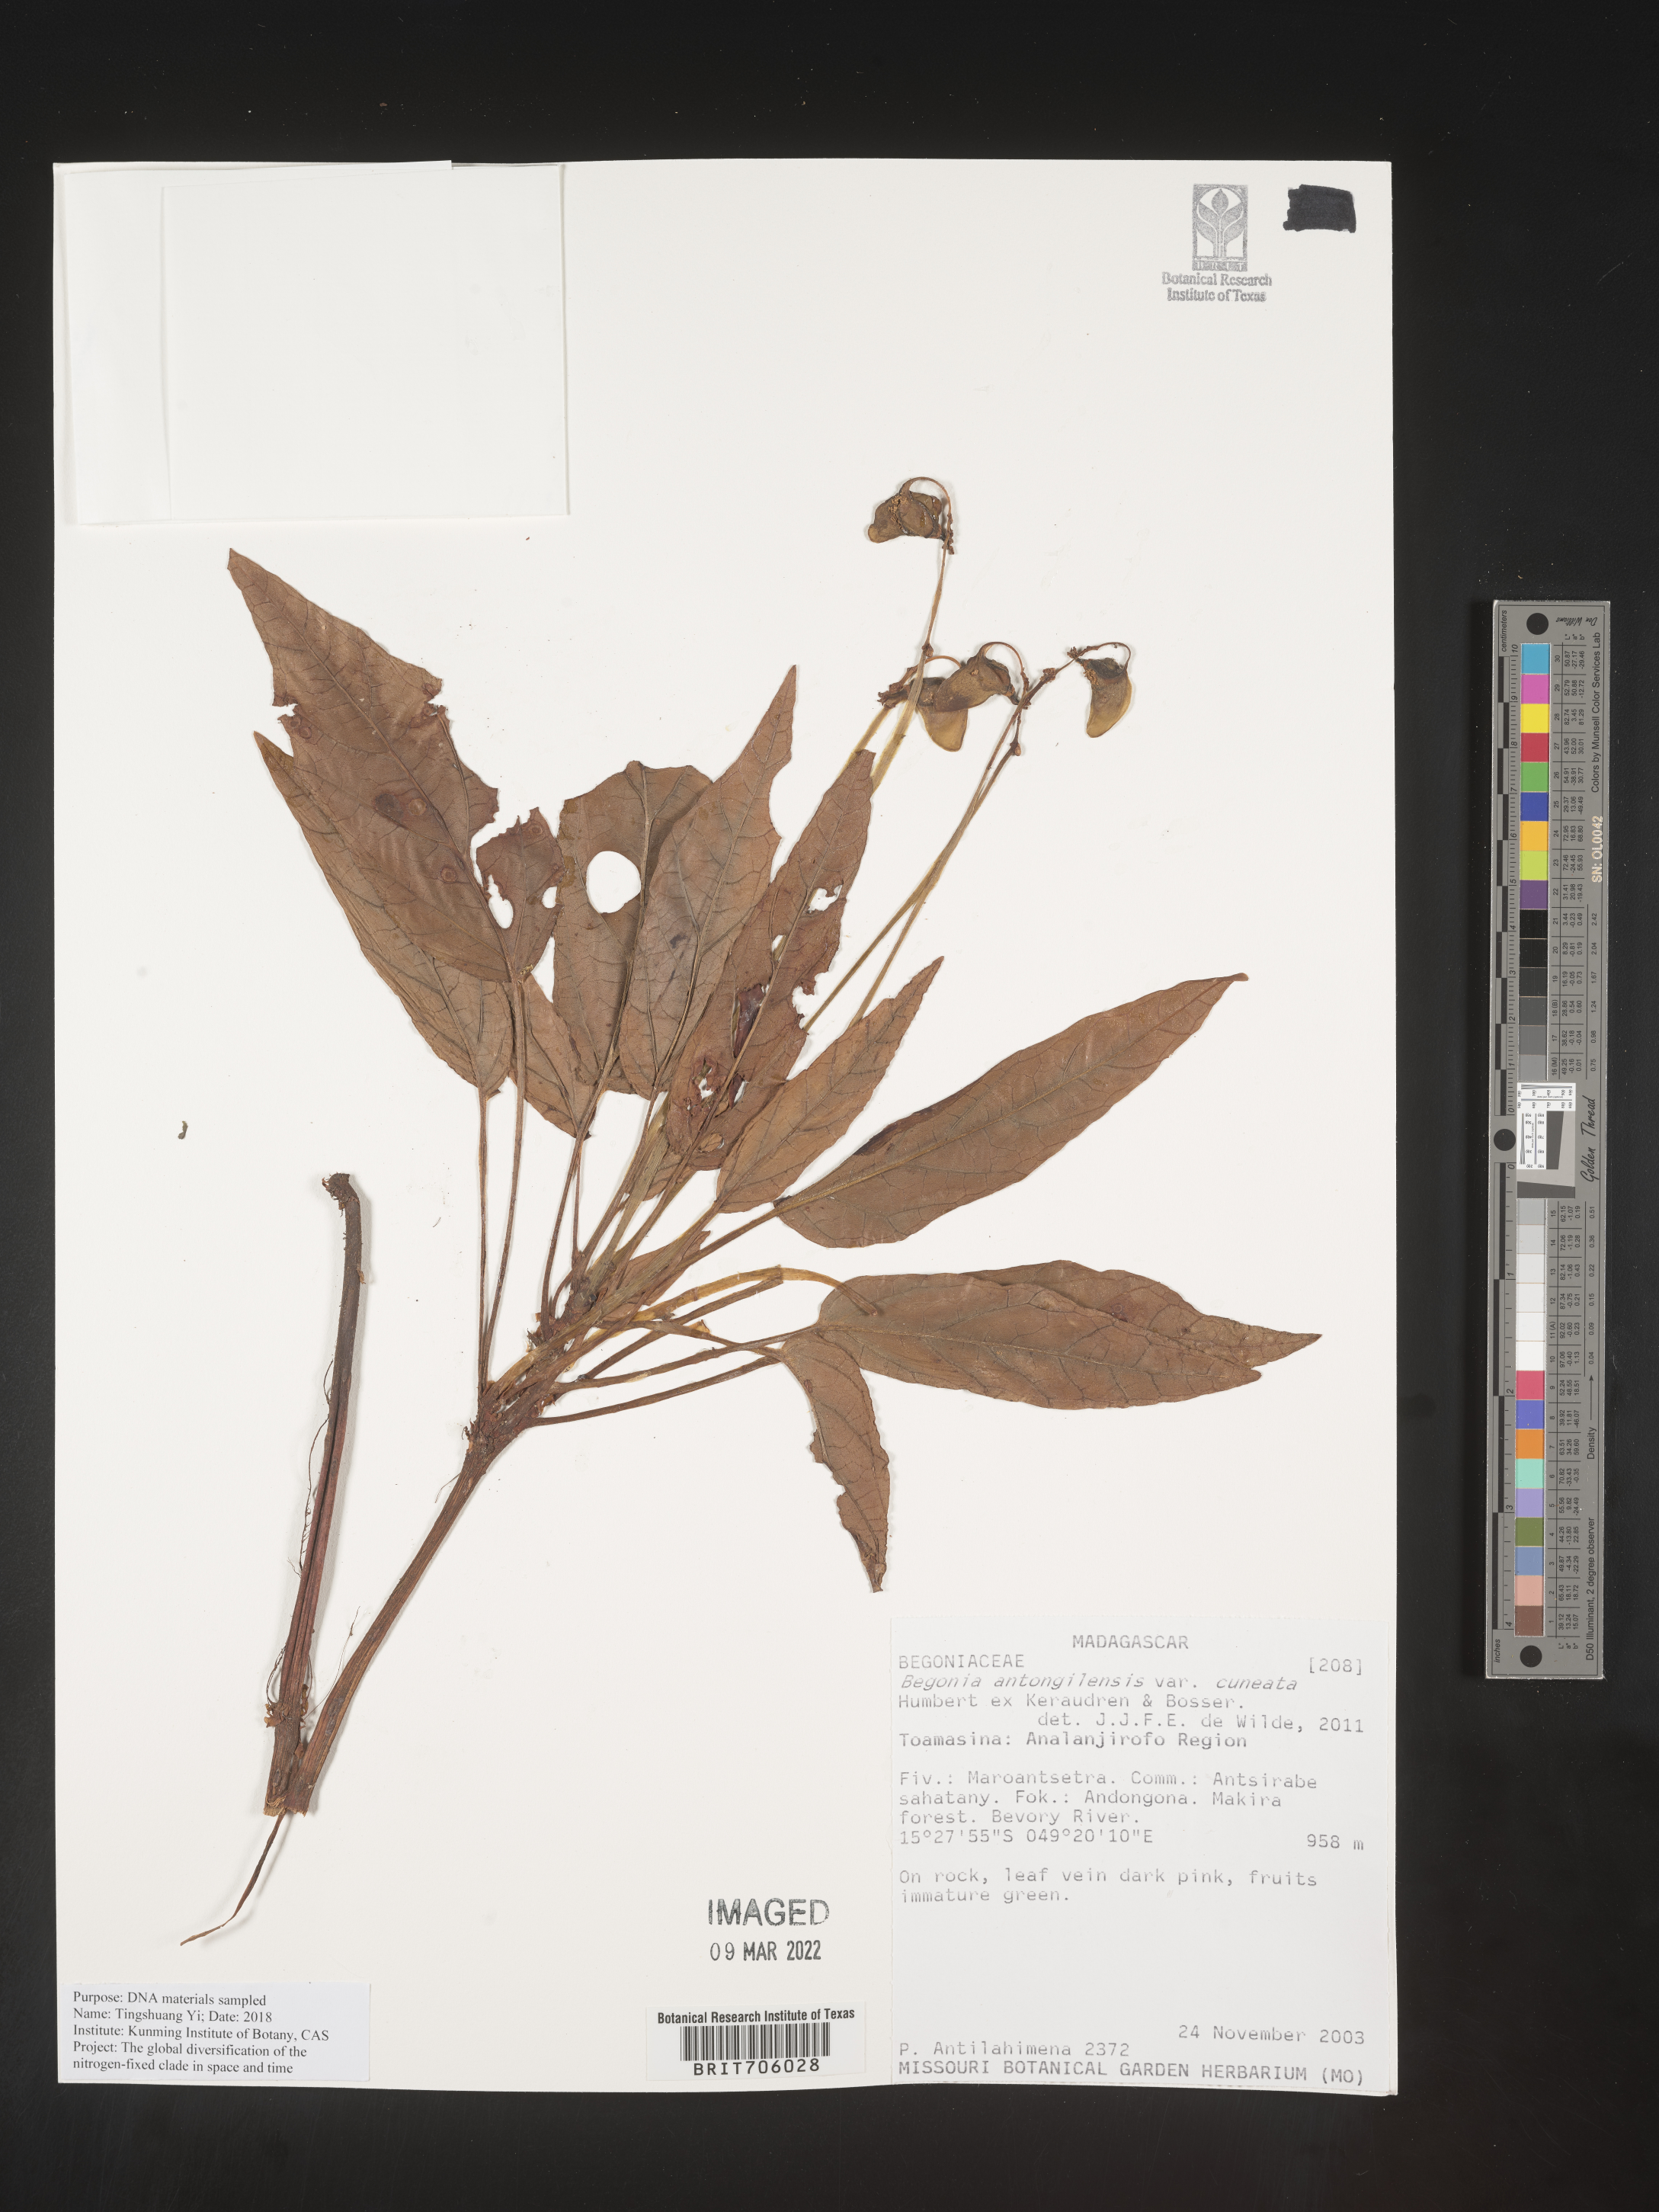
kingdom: Plantae
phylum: Tracheophyta
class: Magnoliopsida
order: Cucurbitales
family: Begoniaceae
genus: Begonia
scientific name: Begonia
